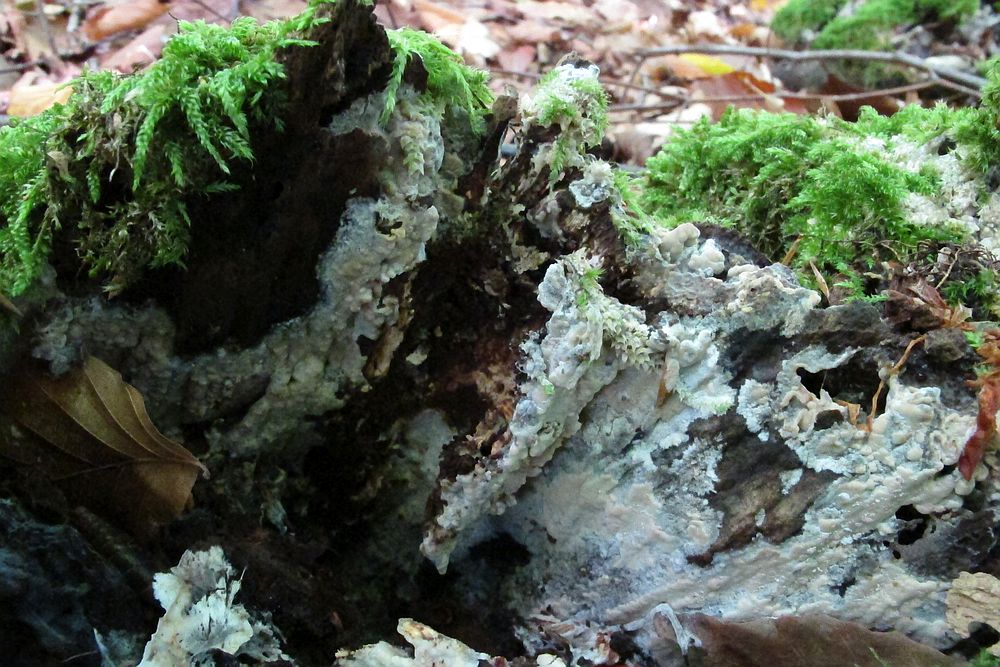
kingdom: Fungi
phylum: Basidiomycota
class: Agaricomycetes
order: Russulales
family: Peniophoraceae
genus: Gloiothele
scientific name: Gloiothele lactescens
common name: bitter olieskind
